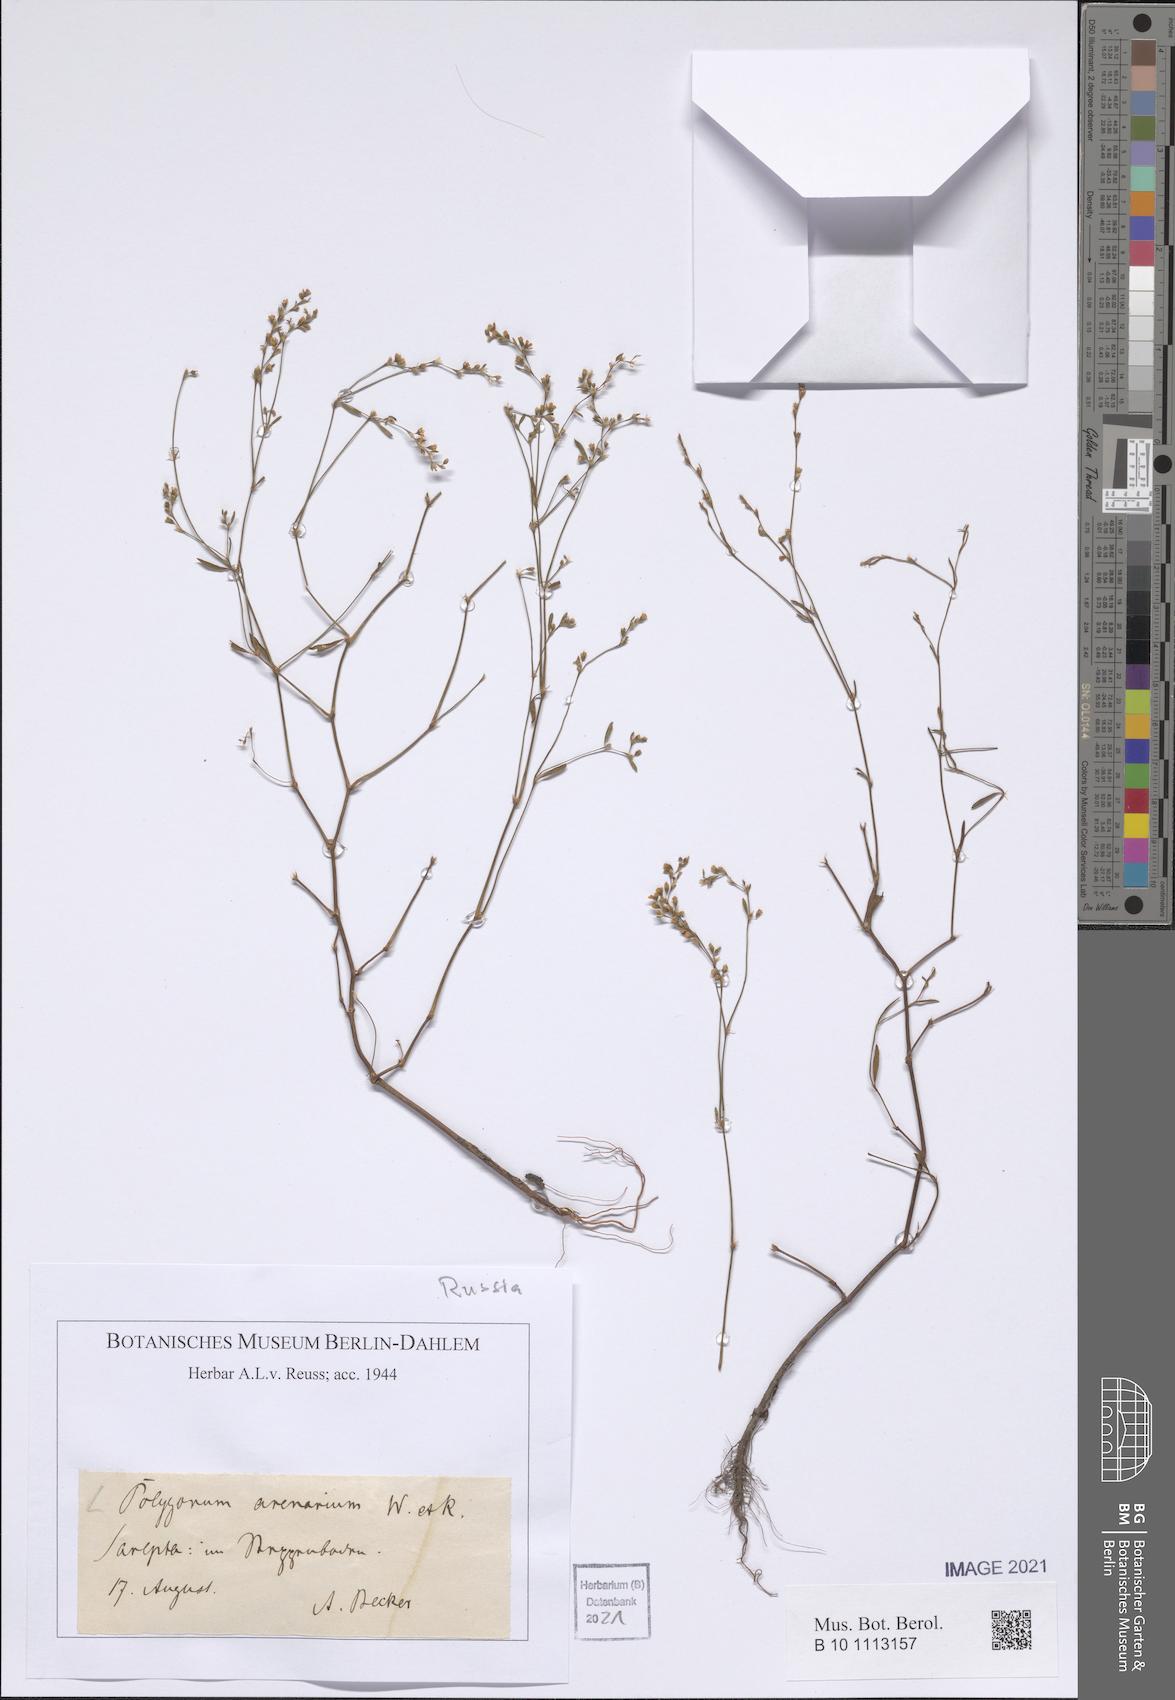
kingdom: Plantae
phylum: Tracheophyta
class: Magnoliopsida
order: Caryophyllales
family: Polygonaceae
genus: Polygonum
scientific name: Polygonum arenarium
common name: Lesser red-knotgrass
